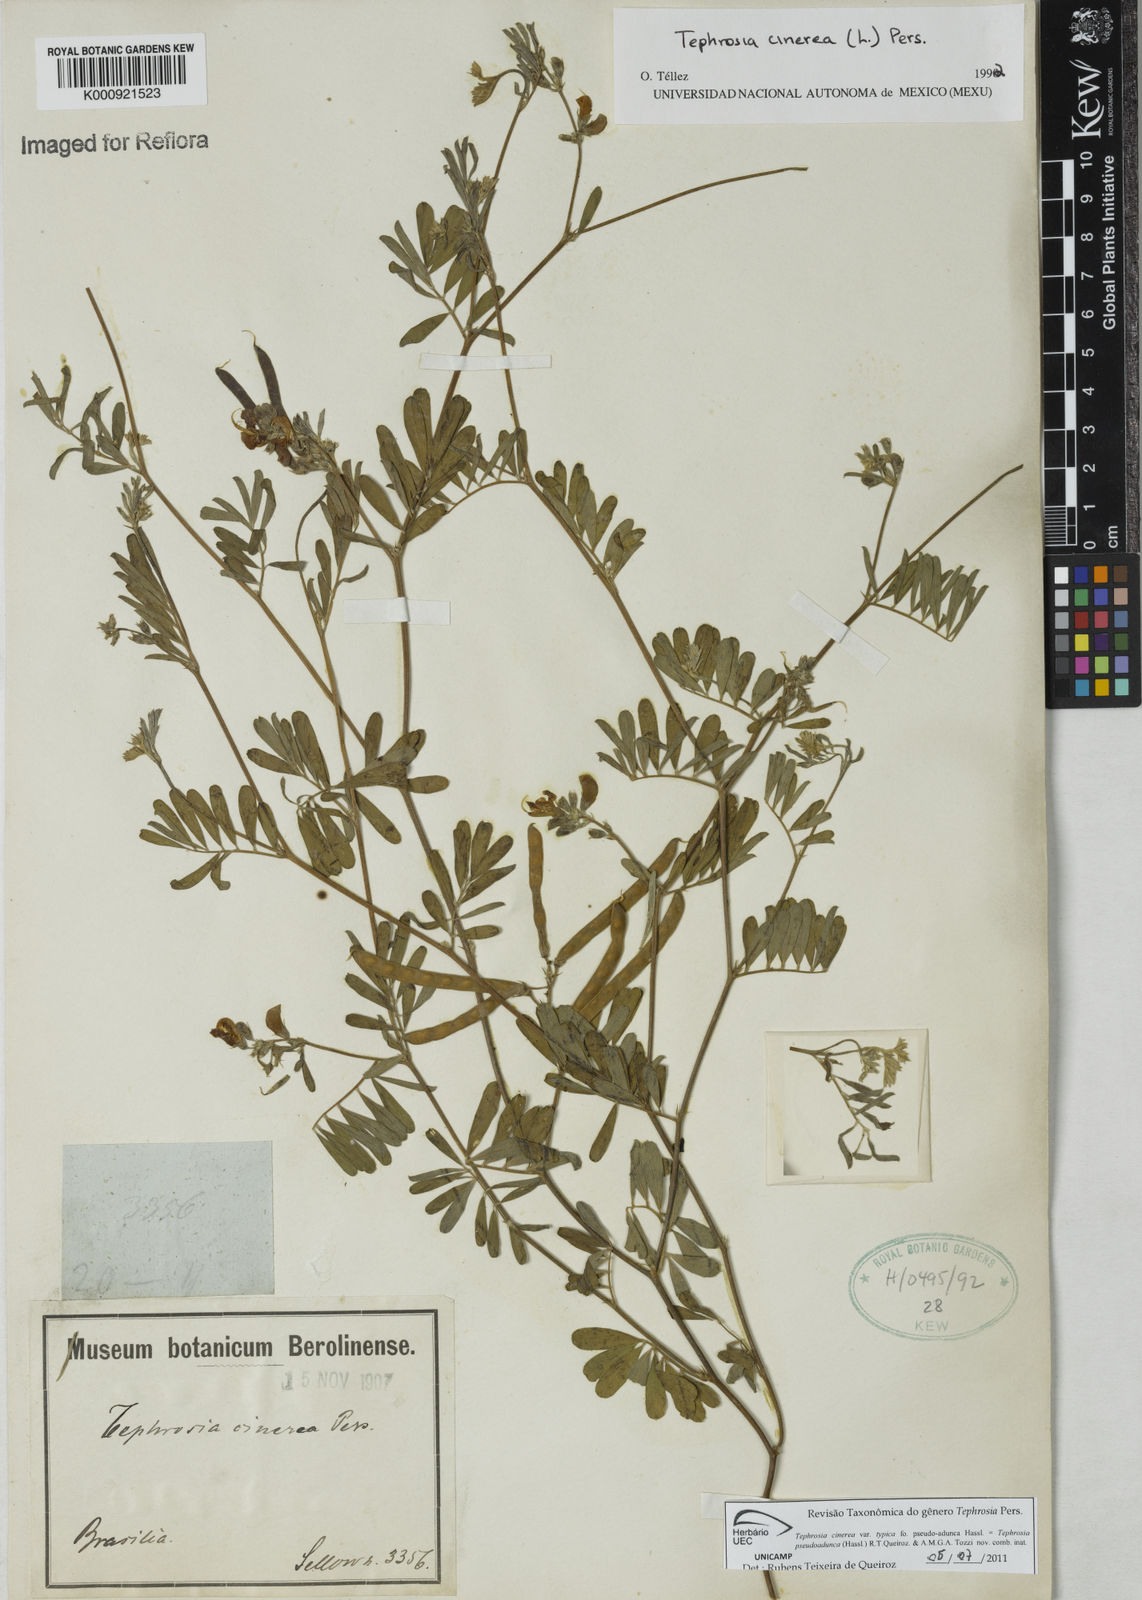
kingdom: Plantae
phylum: Tracheophyta
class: Magnoliopsida
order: Fabales
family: Fabaceae
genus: Tephrosia
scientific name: Tephrosia
